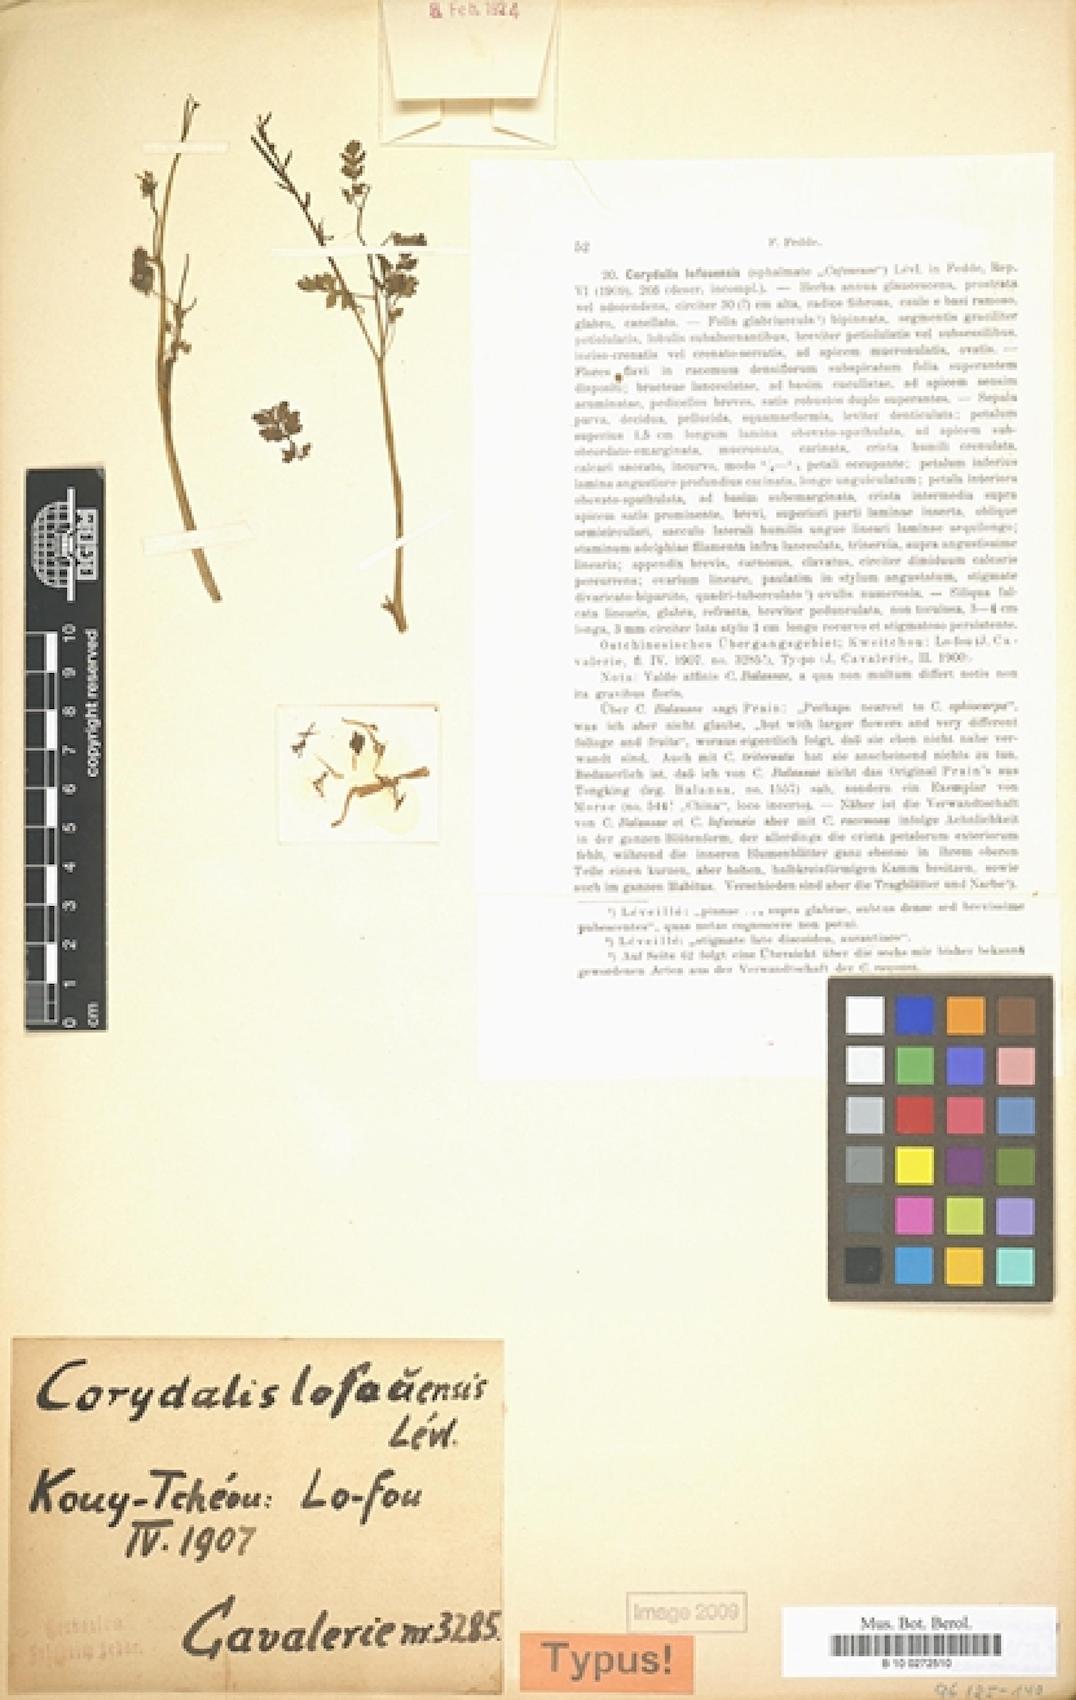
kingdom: Plantae
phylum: Tracheophyta
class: Magnoliopsida
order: Ranunculales
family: Papaveraceae
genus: Corydalis
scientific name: Corydalis balansae
